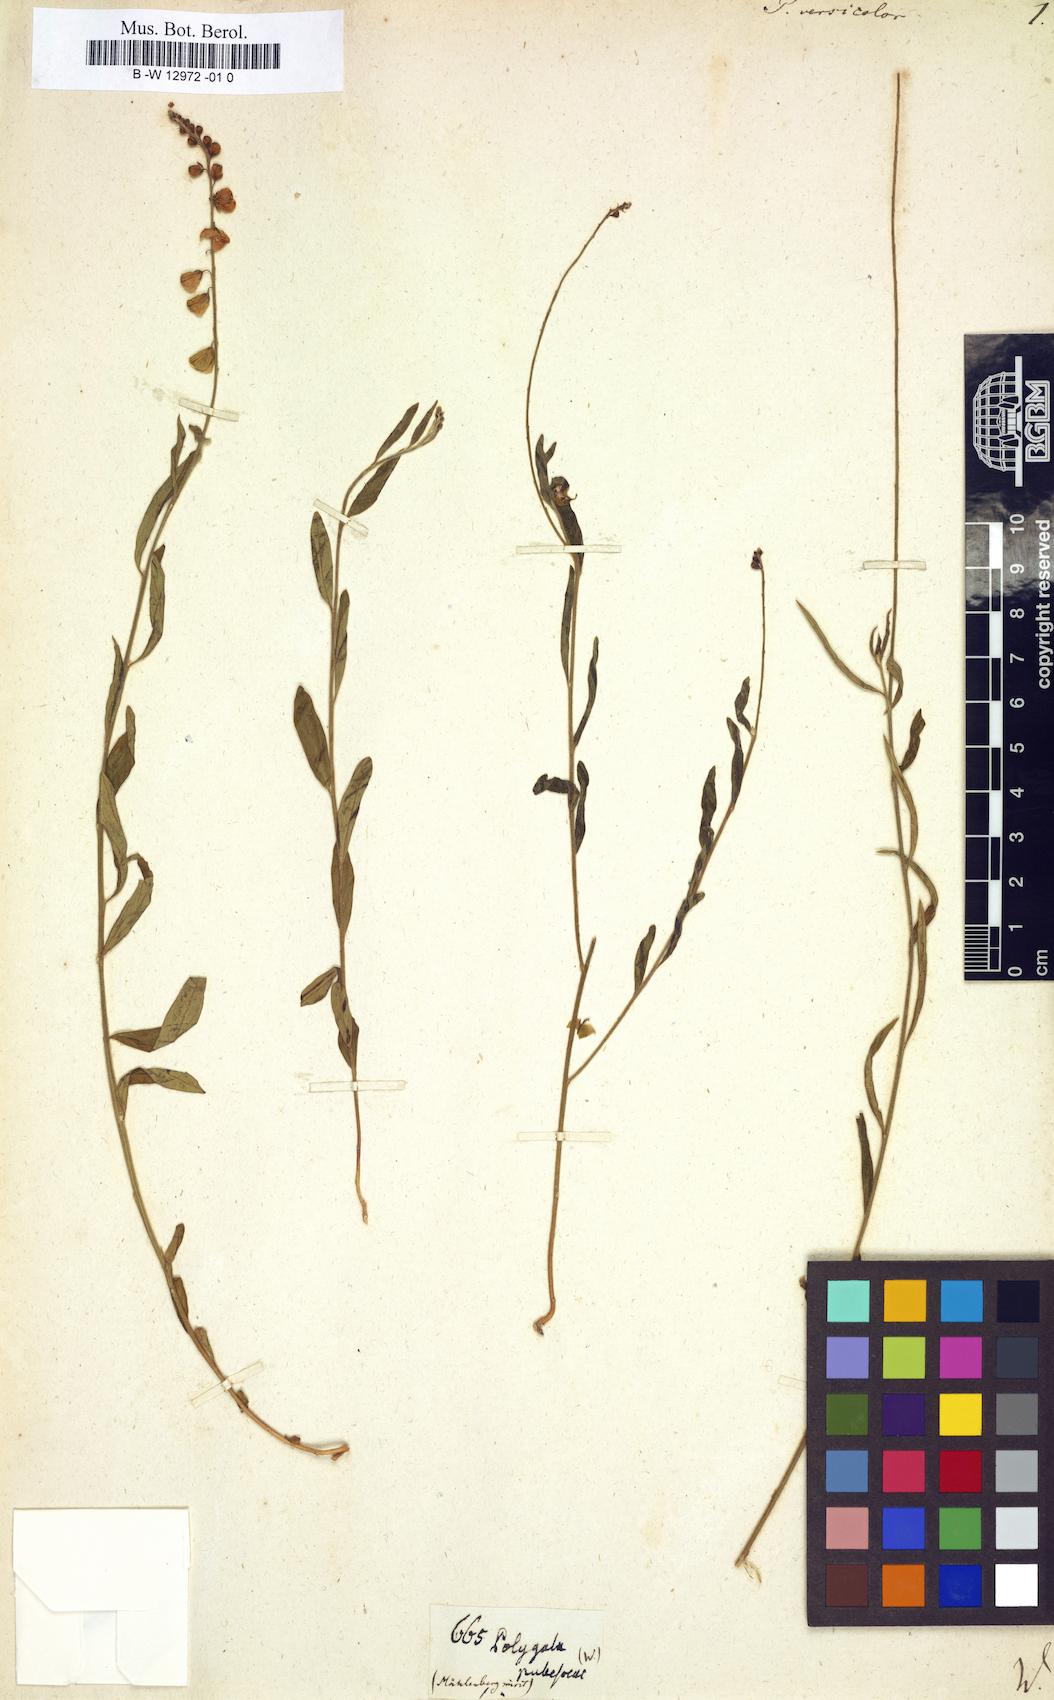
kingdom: Plantae
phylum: Tracheophyta
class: Magnoliopsida
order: Fabales
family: Polygalaceae
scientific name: Polygalaceae
